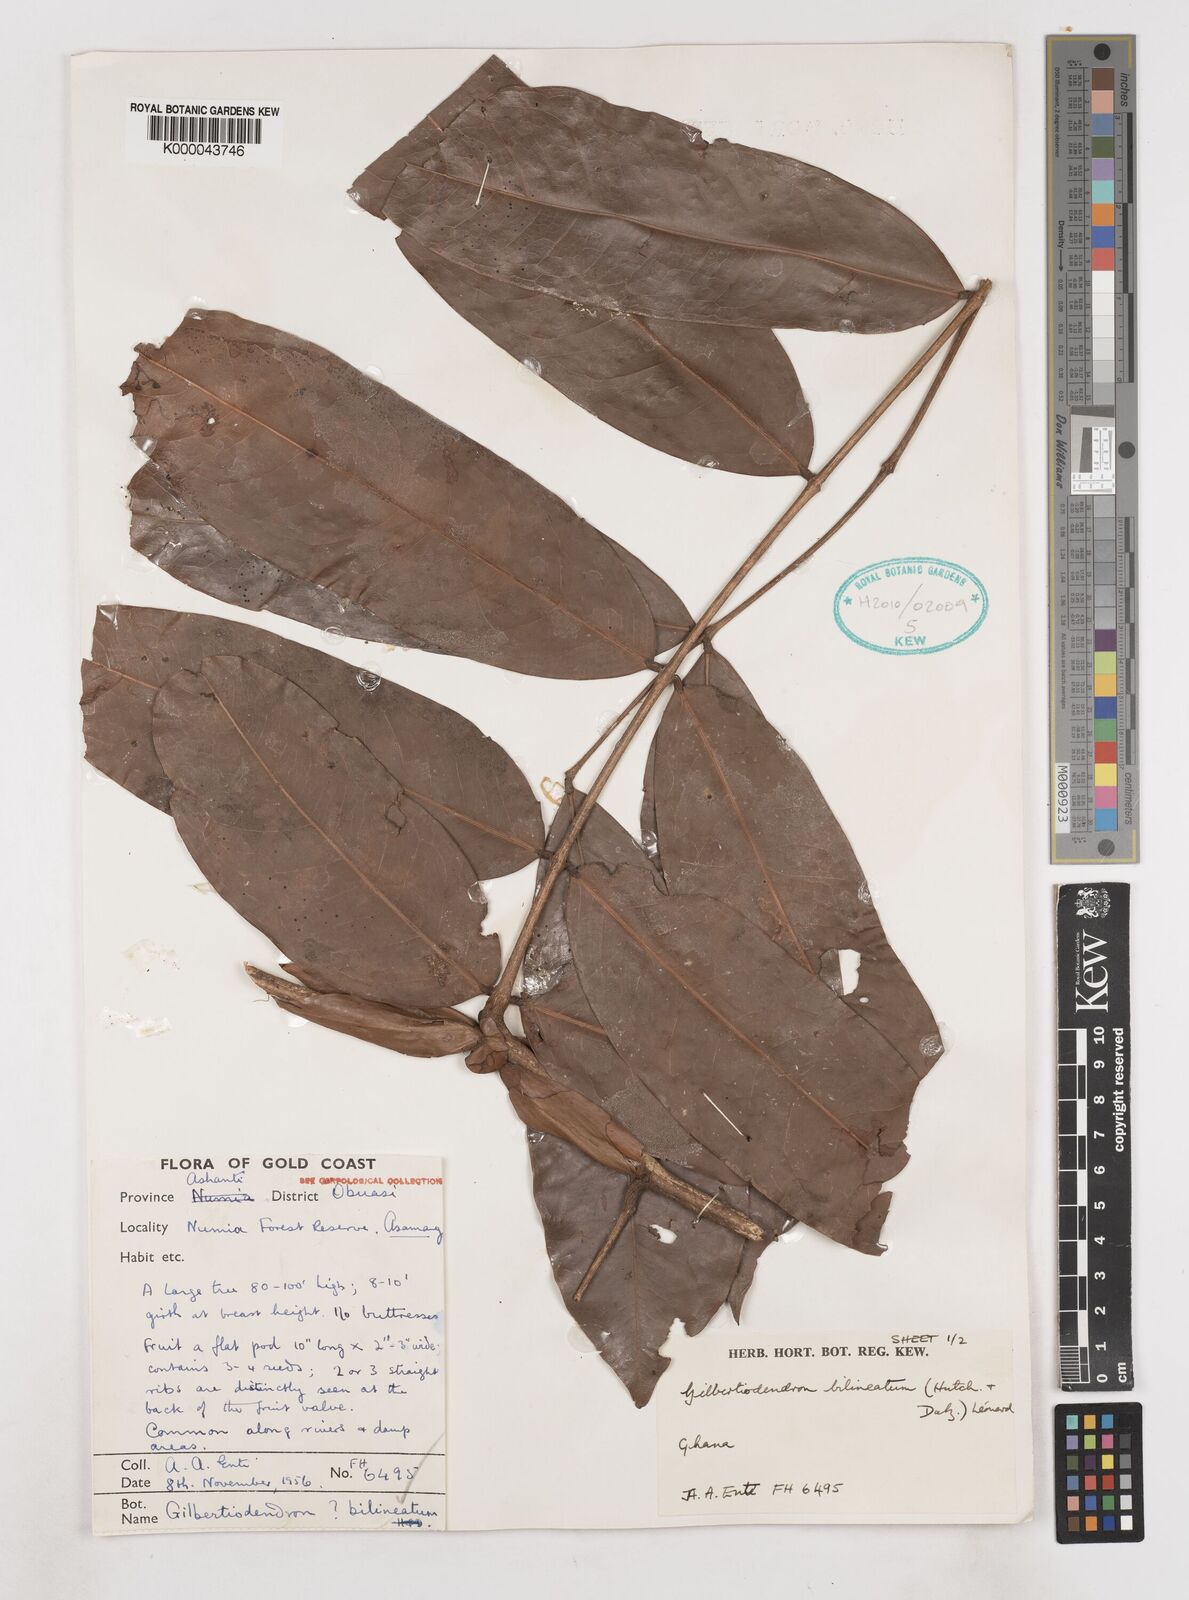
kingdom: Plantae
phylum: Tracheophyta
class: Magnoliopsida
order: Fabales
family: Fabaceae
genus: Gilbertiodendron
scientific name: Gilbertiodendron
